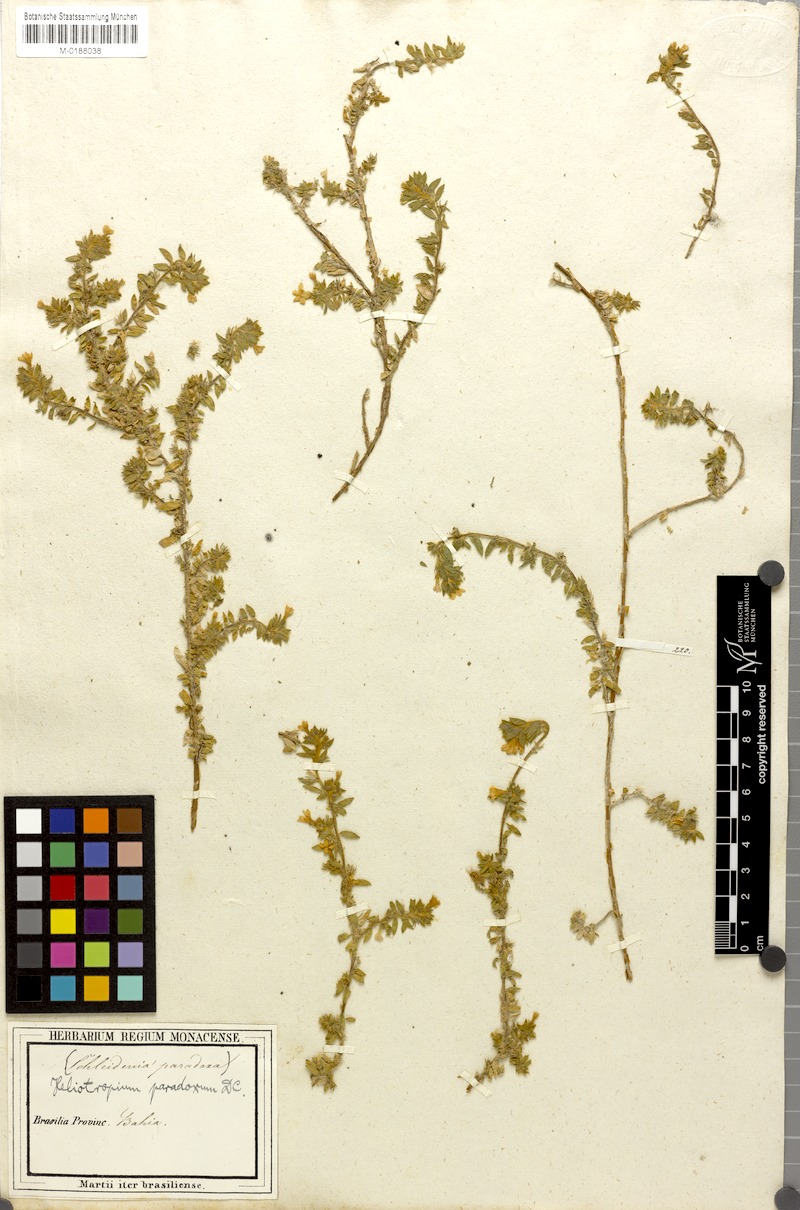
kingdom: Plantae
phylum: Tracheophyta
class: Magnoliopsida
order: Boraginales
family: Heliotropiaceae
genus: Euploca
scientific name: Euploca paradoxa
